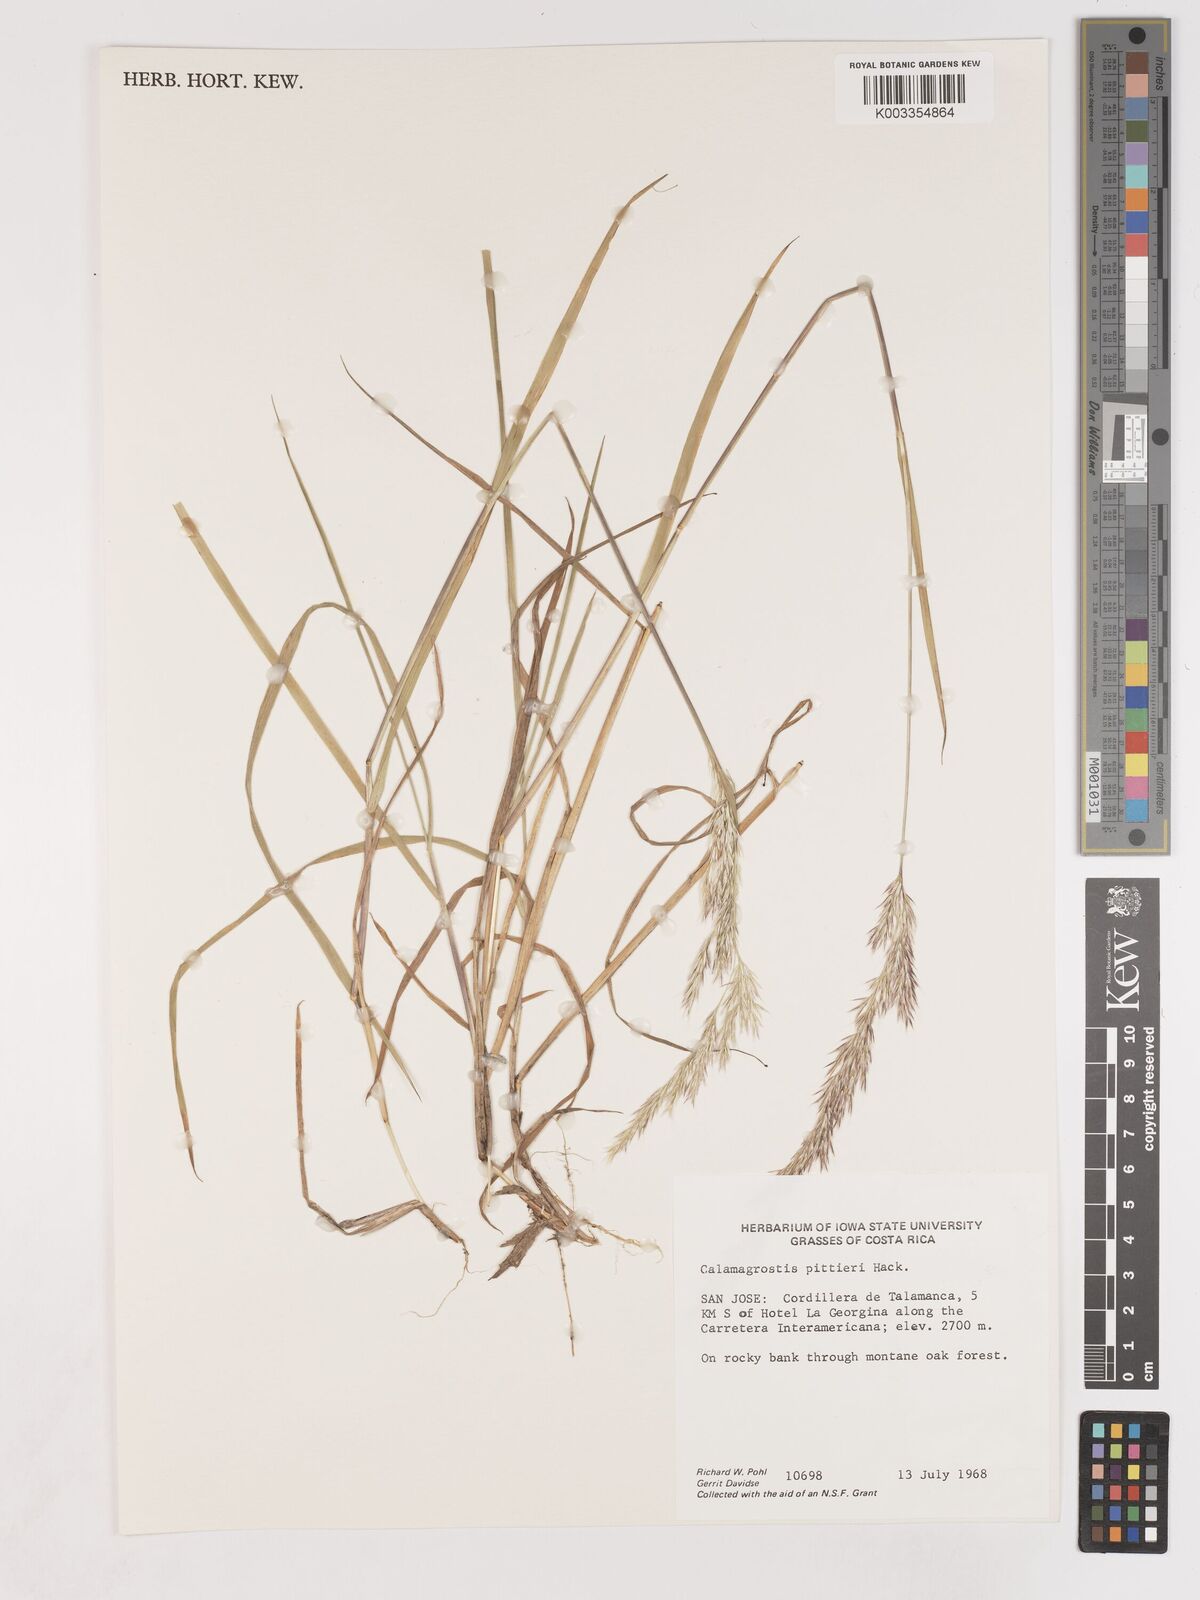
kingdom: Plantae
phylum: Tracheophyta
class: Liliopsida
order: Poales
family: Poaceae
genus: Calamagrostis
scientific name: Calamagrostis
